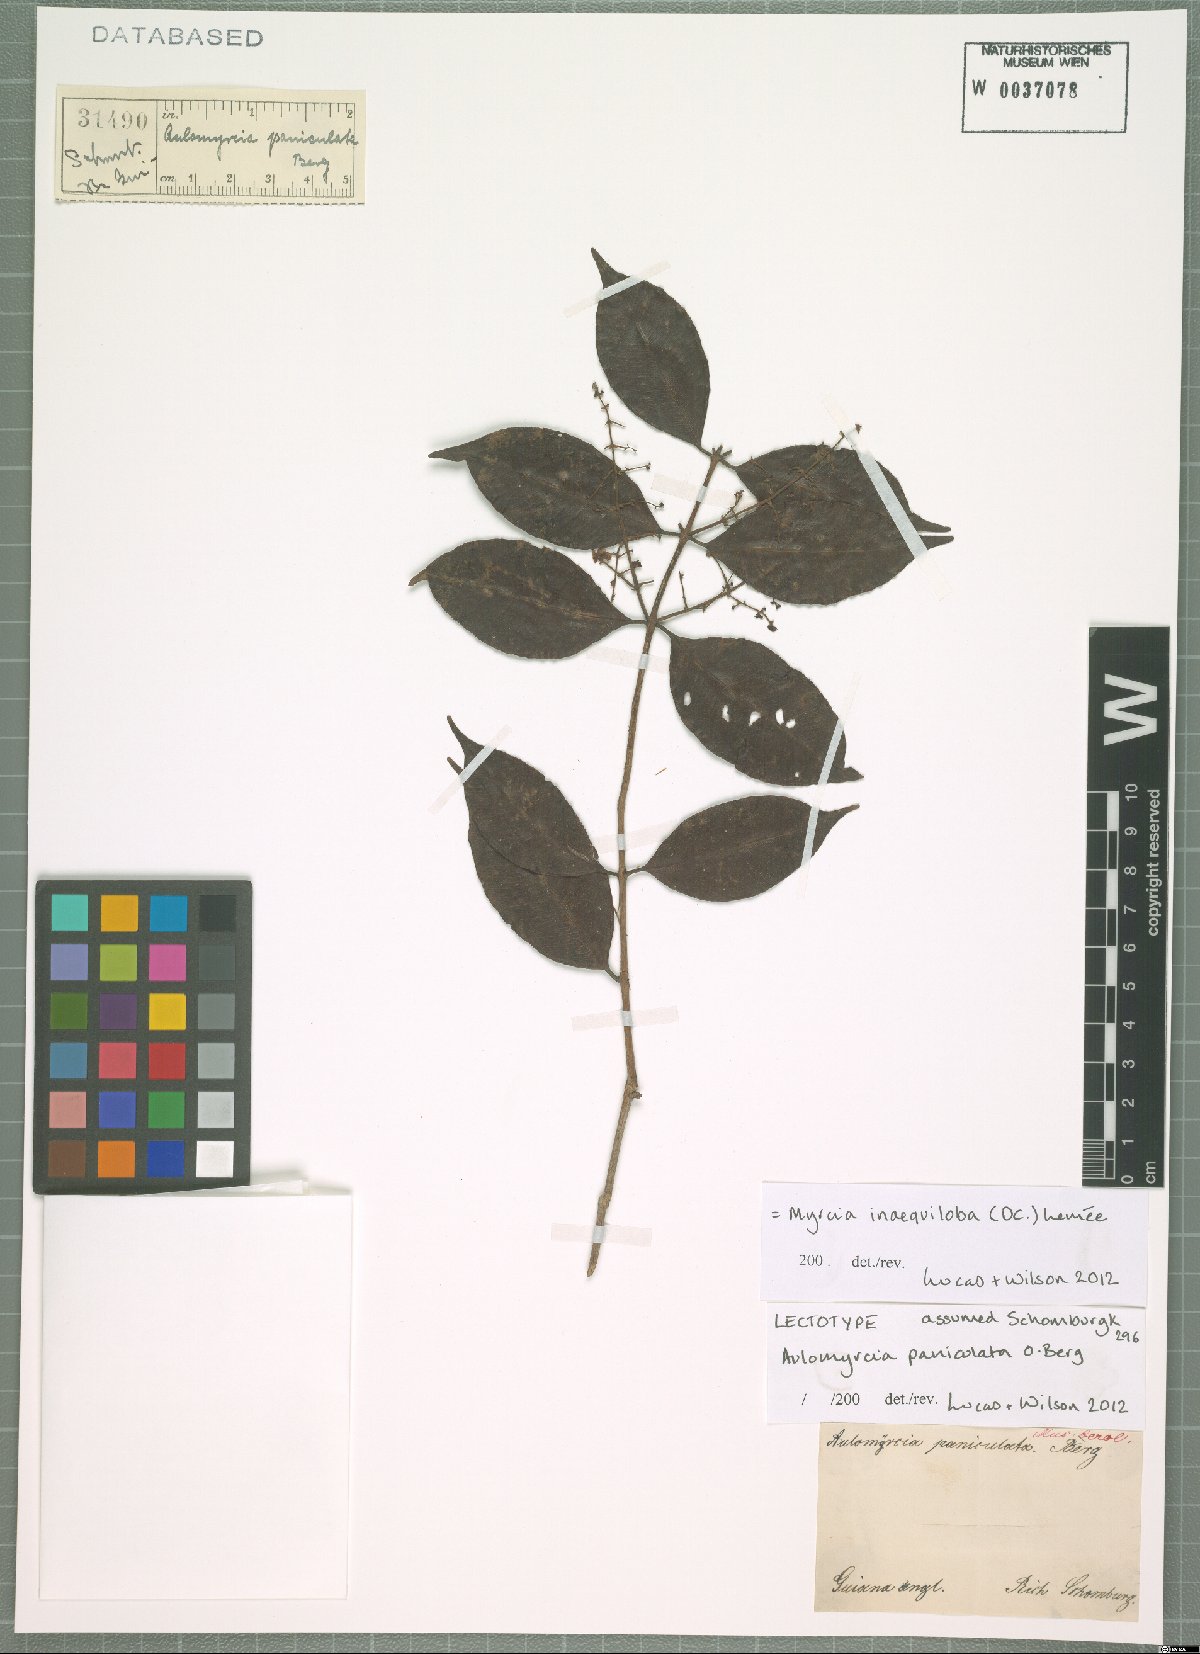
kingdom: Plantae
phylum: Tracheophyta
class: Magnoliopsida
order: Myrtales
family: Myrtaceae
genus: Myrcia
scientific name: Myrcia inaequiloba
